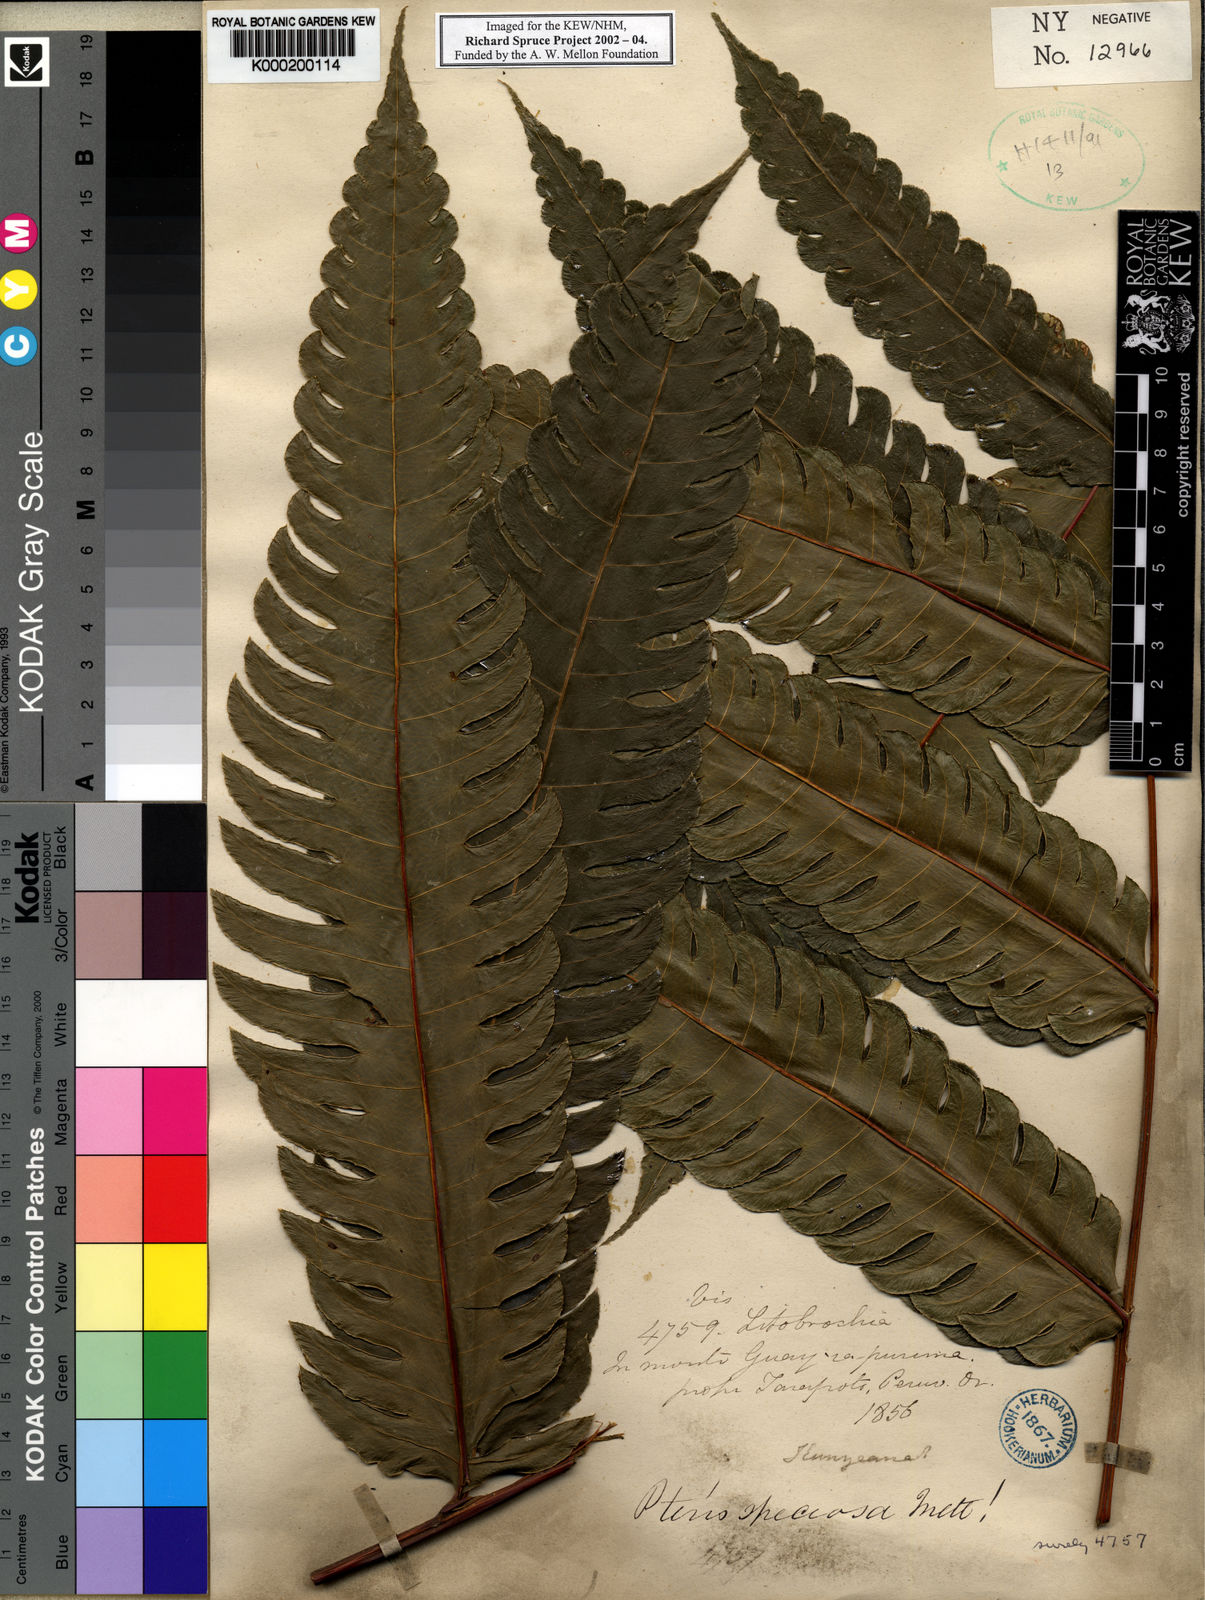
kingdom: Plantae
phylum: Tracheophyta
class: Polypodiopsida
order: Polypodiales
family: Pteridaceae
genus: Pteris
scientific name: Pteris speciosa
